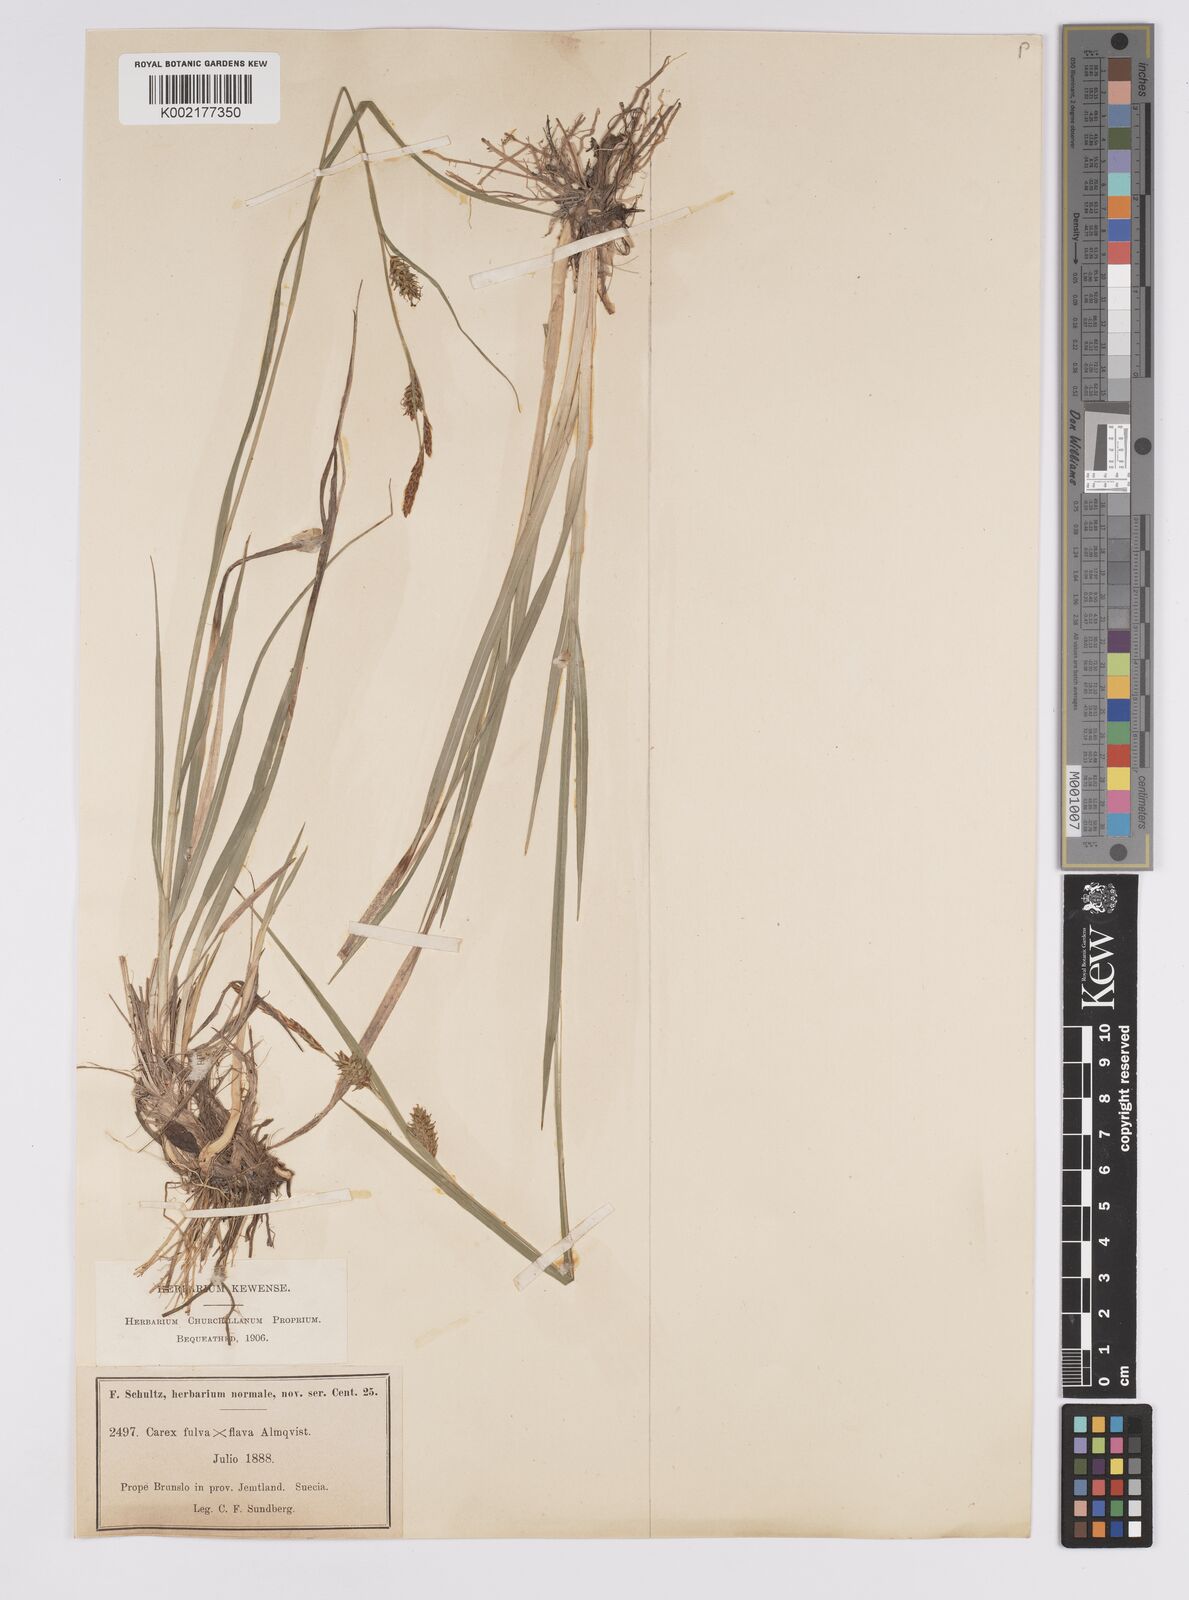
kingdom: Plantae
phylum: Tracheophyta
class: Liliopsida
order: Poales
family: Cyperaceae
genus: Carex
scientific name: Carex hostiana
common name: Tawny sedge
